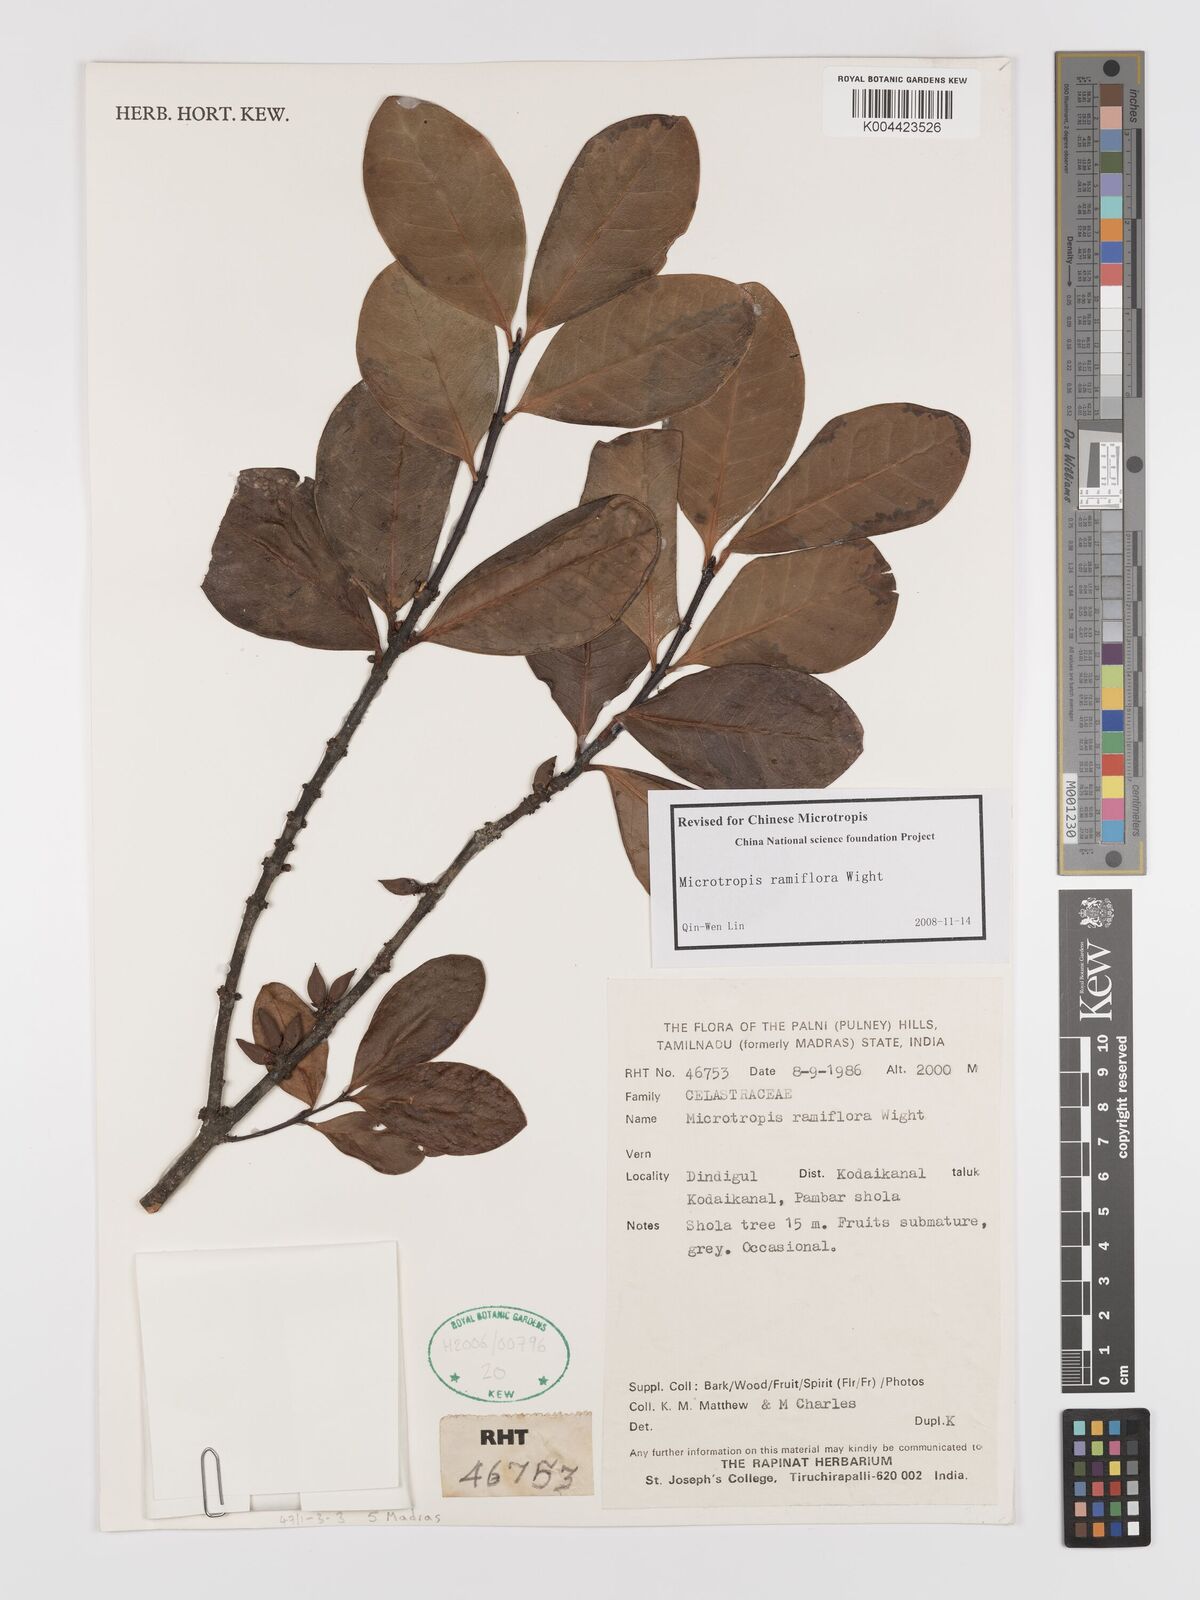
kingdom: Plantae
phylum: Tracheophyta
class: Magnoliopsida
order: Celastrales
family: Celastraceae
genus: Microtropis
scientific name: Microtropis ramiflora
